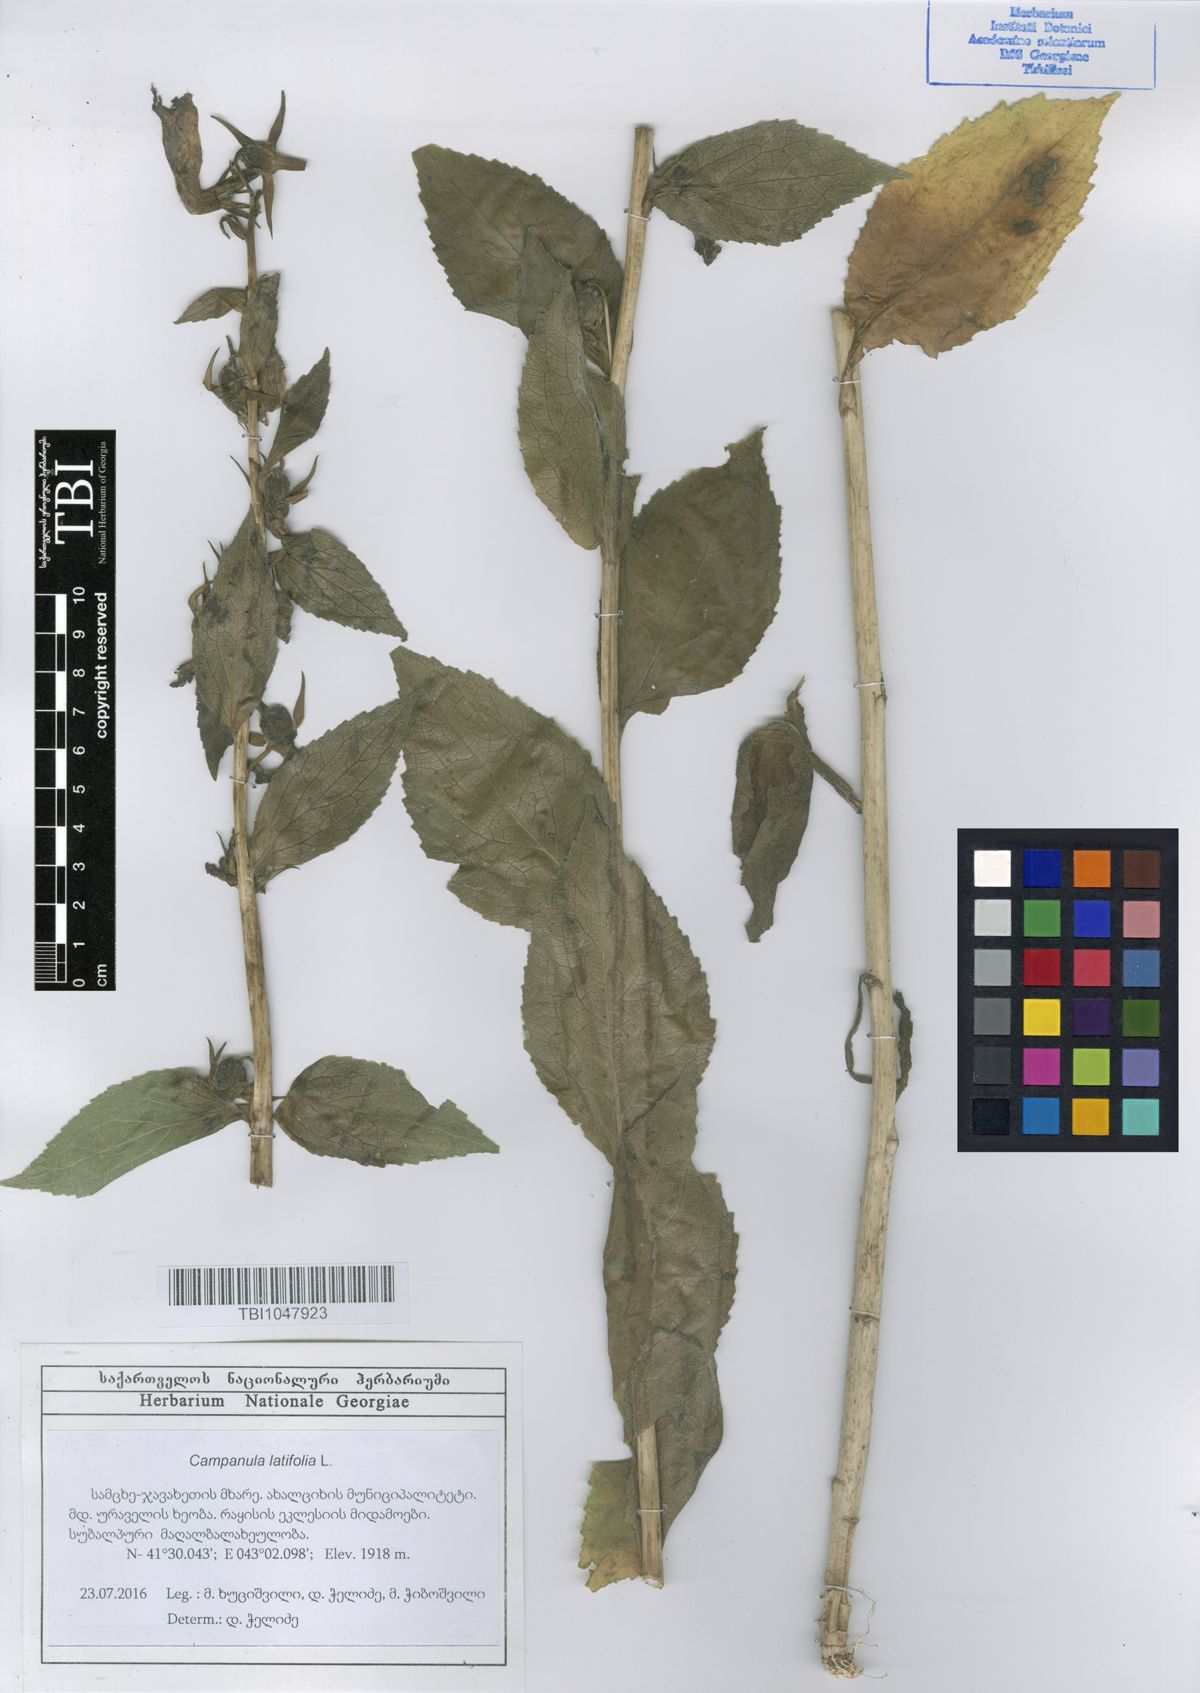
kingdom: Plantae
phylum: Tracheophyta
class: Magnoliopsida
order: Asterales
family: Campanulaceae
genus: Campanula
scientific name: Campanula latifolia
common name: Giant bellflower
